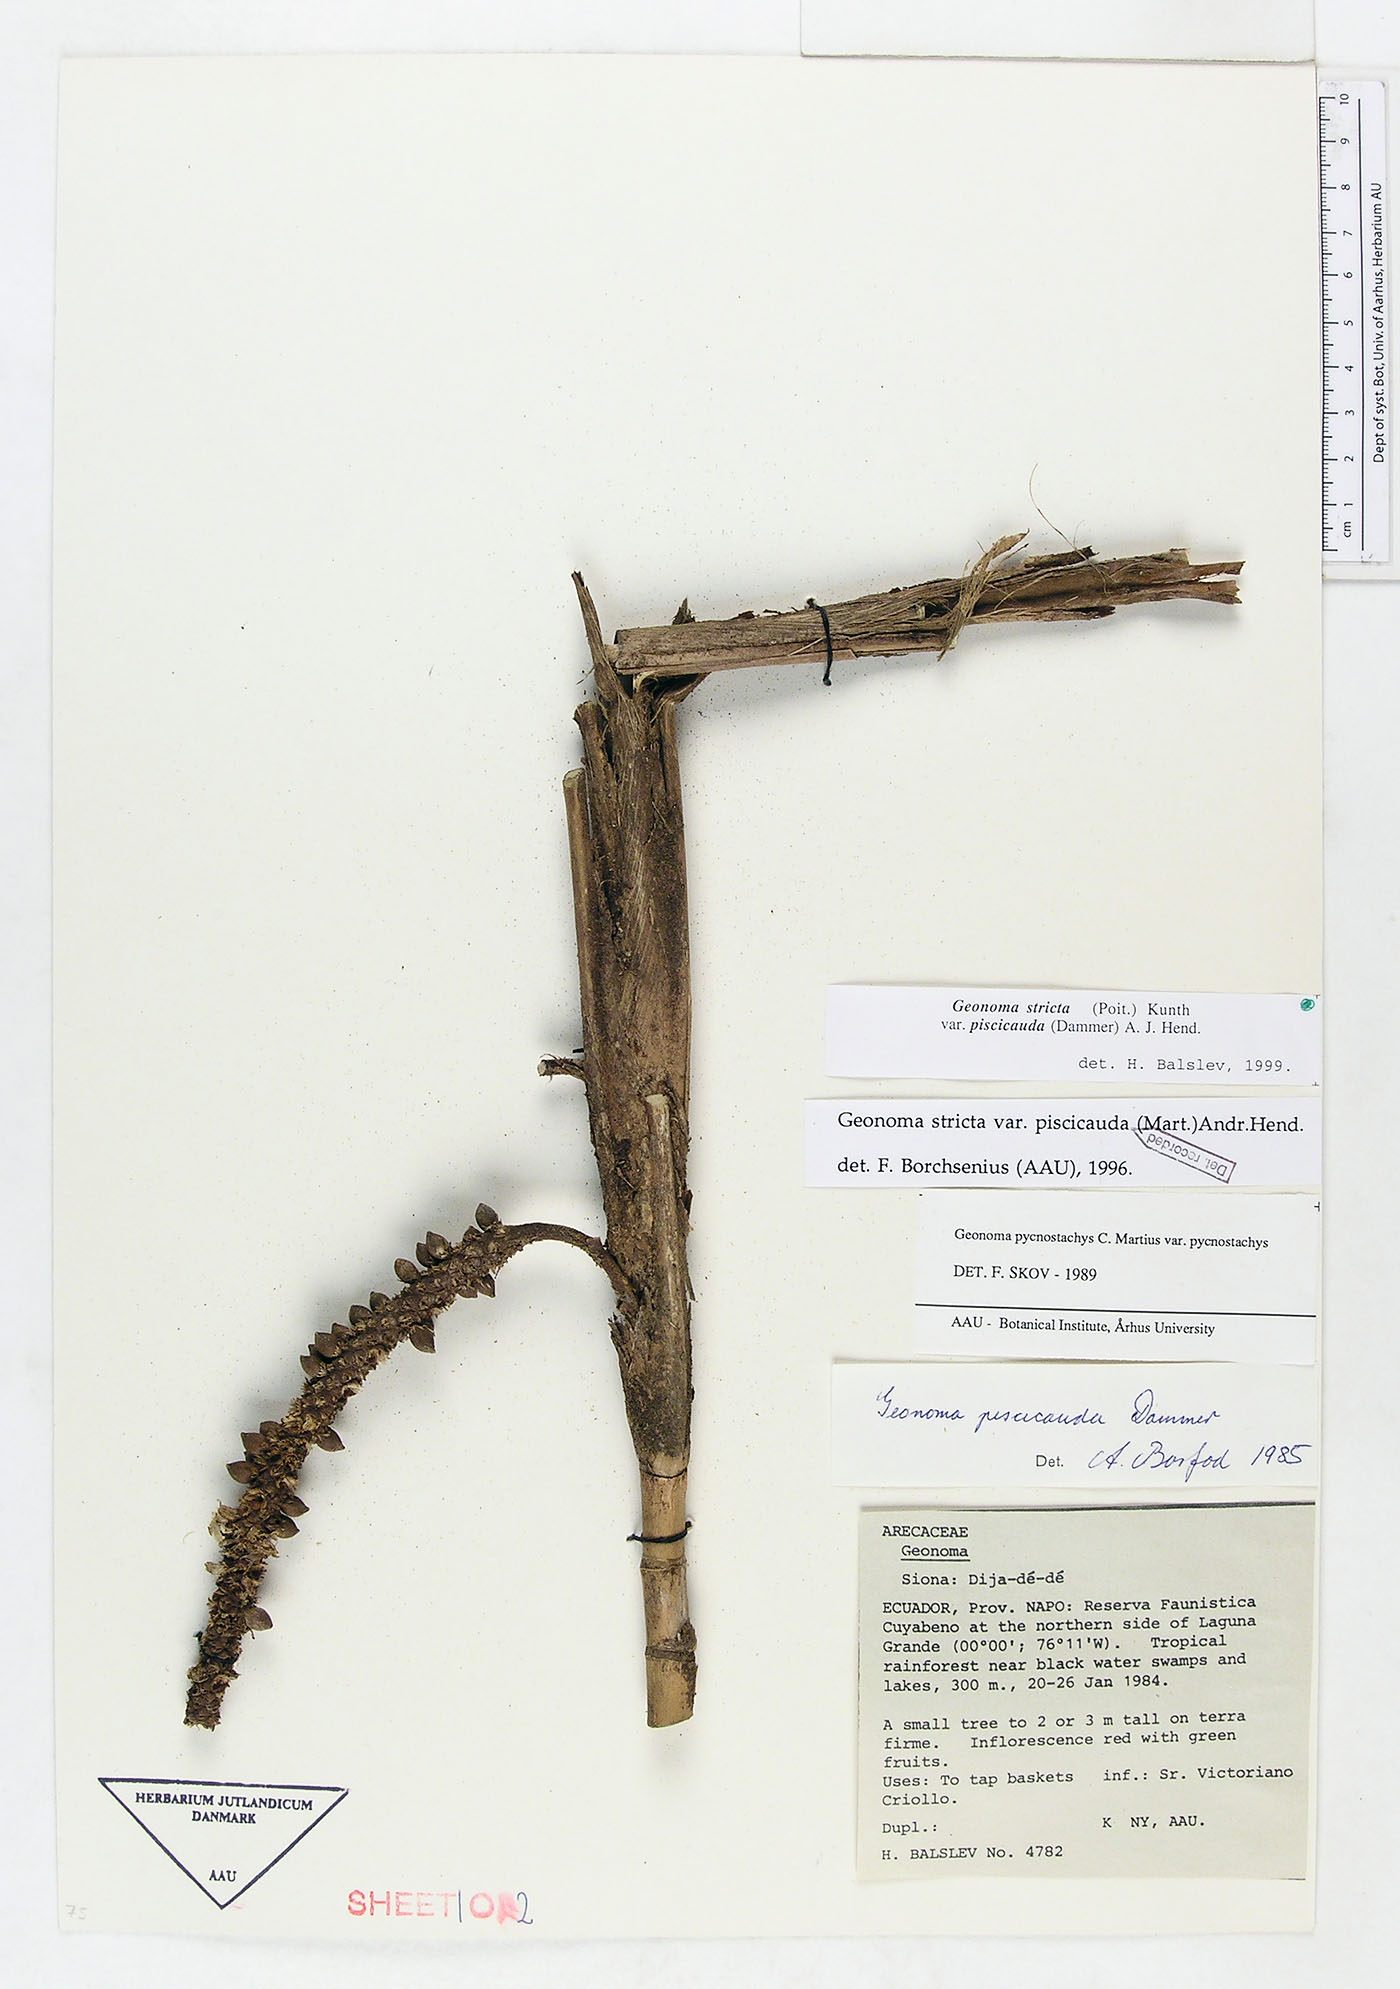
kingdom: Plantae
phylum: Tracheophyta
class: Liliopsida
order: Arecales
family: Arecaceae
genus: Geonoma
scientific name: Geonoma stricta
